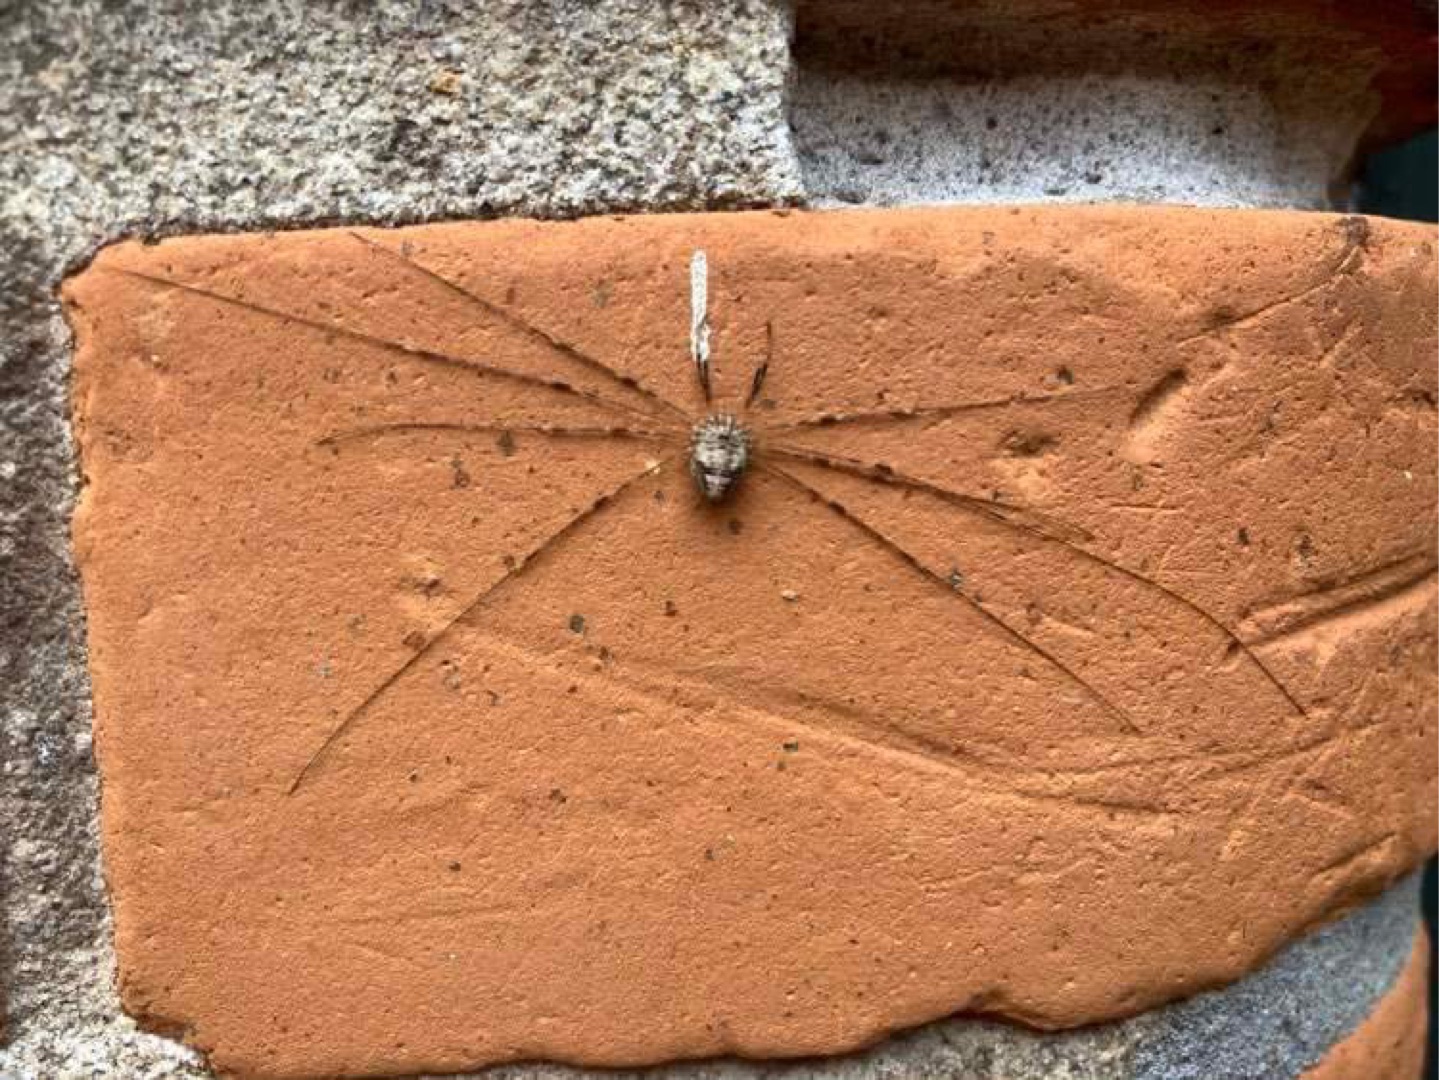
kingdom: Animalia
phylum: Arthropoda
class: Arachnida
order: Opiliones
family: Phalangiidae
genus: Dicranopalpus
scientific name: Dicranopalpus ramosus
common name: Gaffelmejer
